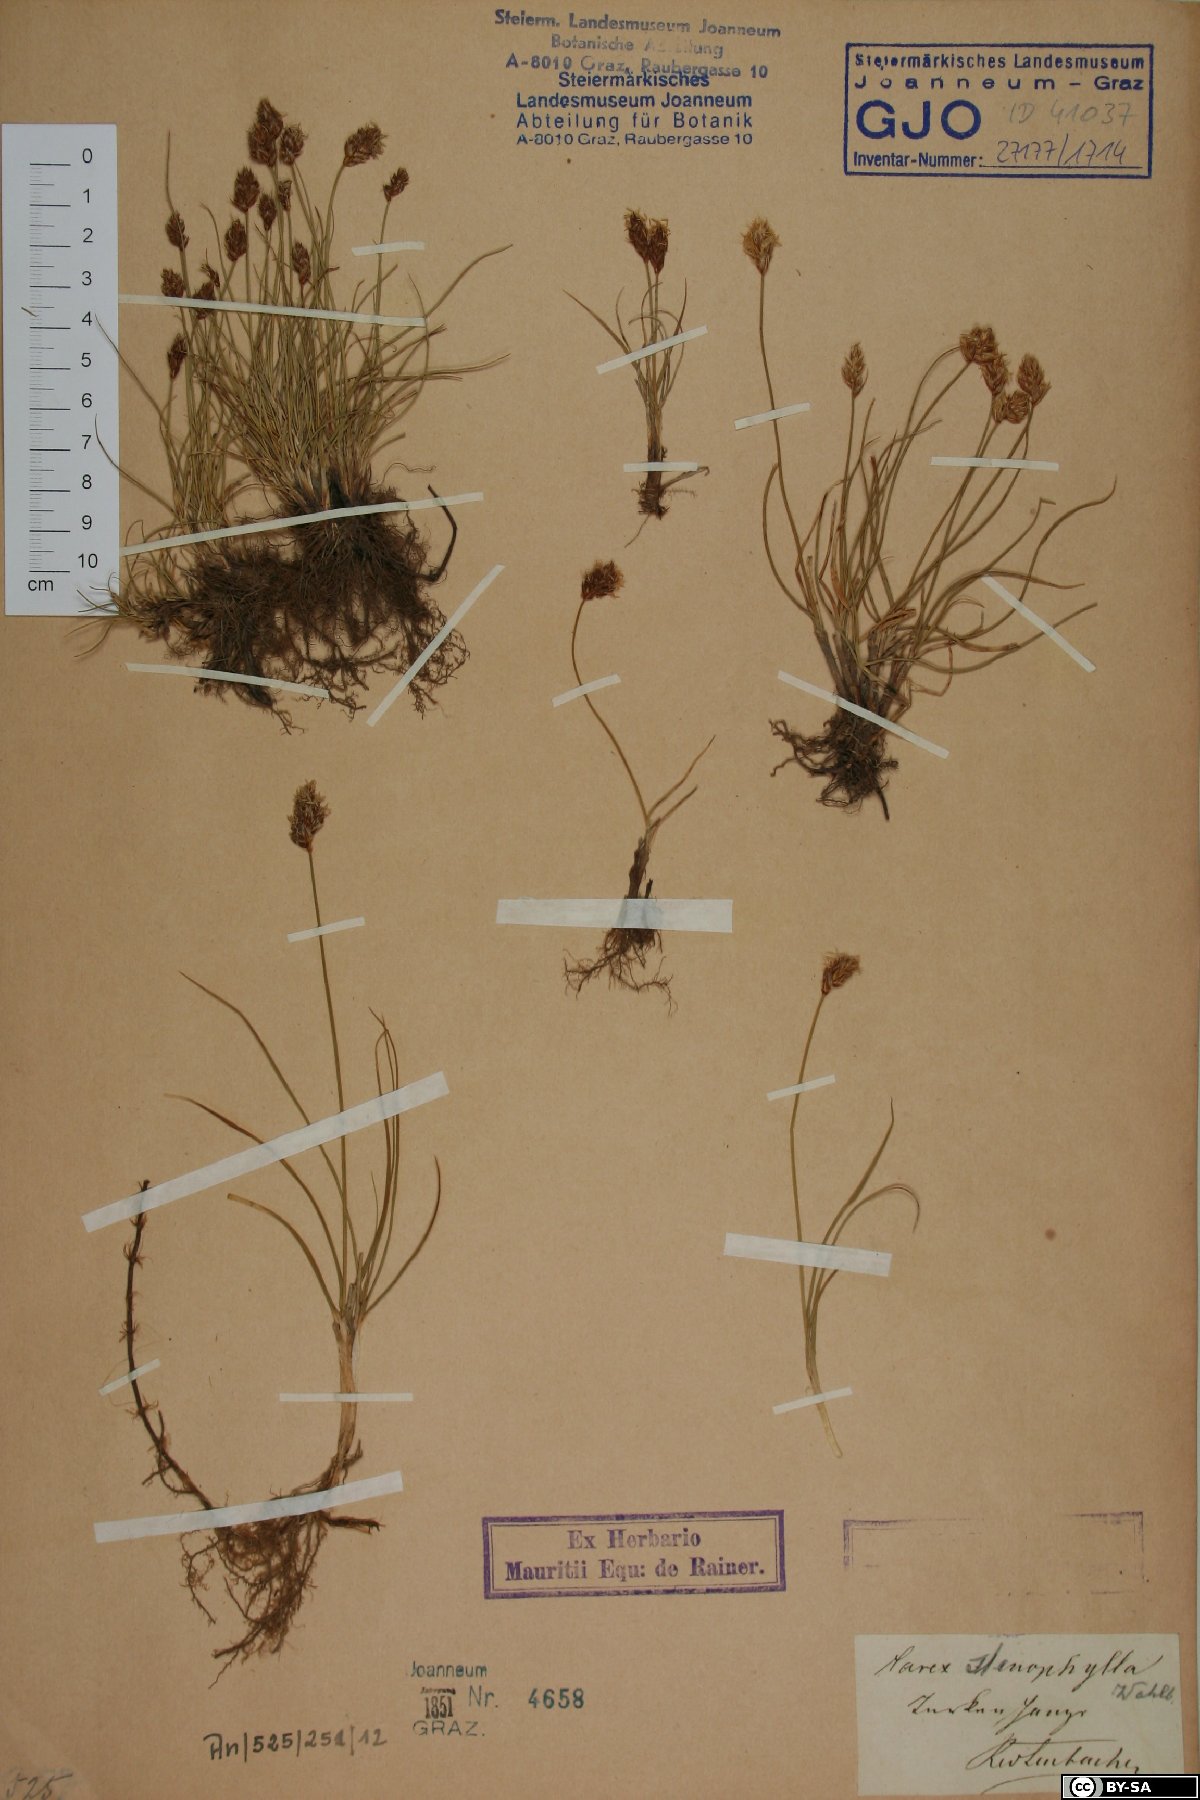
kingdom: Plantae
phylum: Tracheophyta
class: Liliopsida
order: Poales
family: Cyperaceae
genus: Carex
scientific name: Carex stenophylla
